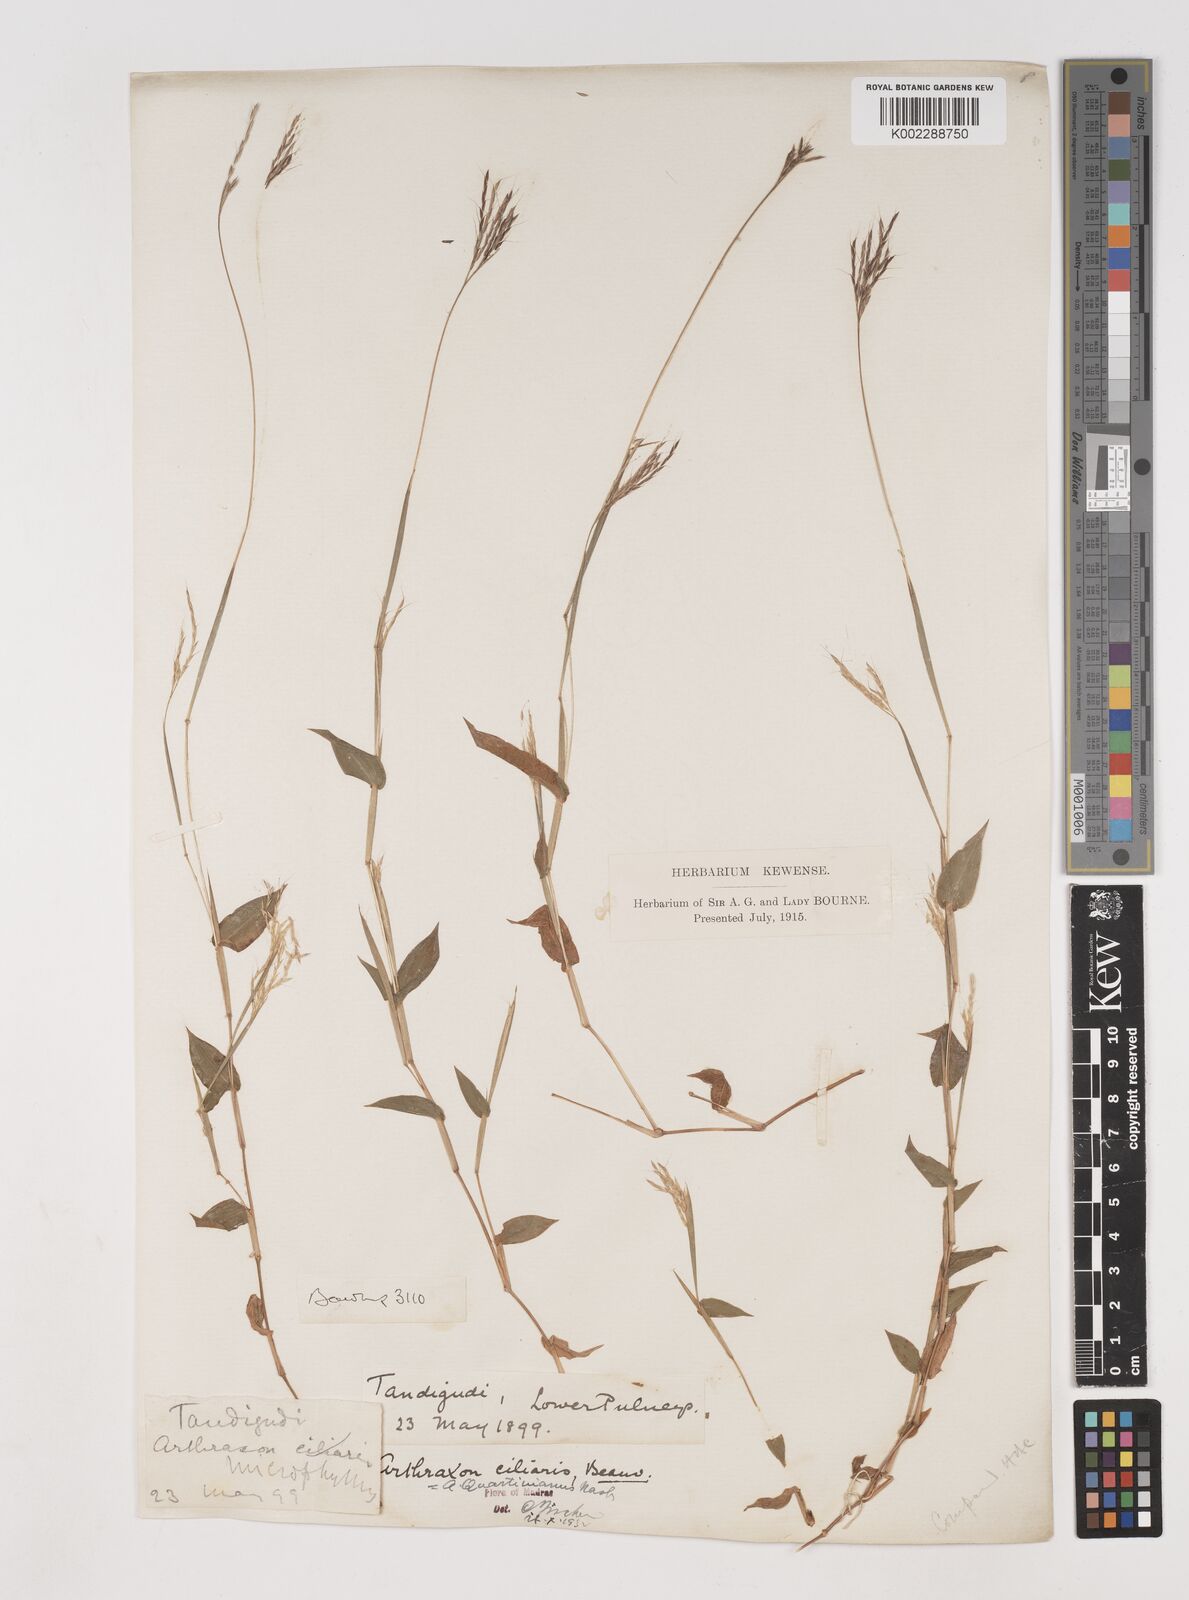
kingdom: Plantae
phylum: Tracheophyta
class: Liliopsida
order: Poales
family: Poaceae
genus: Arthraxon
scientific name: Arthraxon hispidus
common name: Small carpgrass
